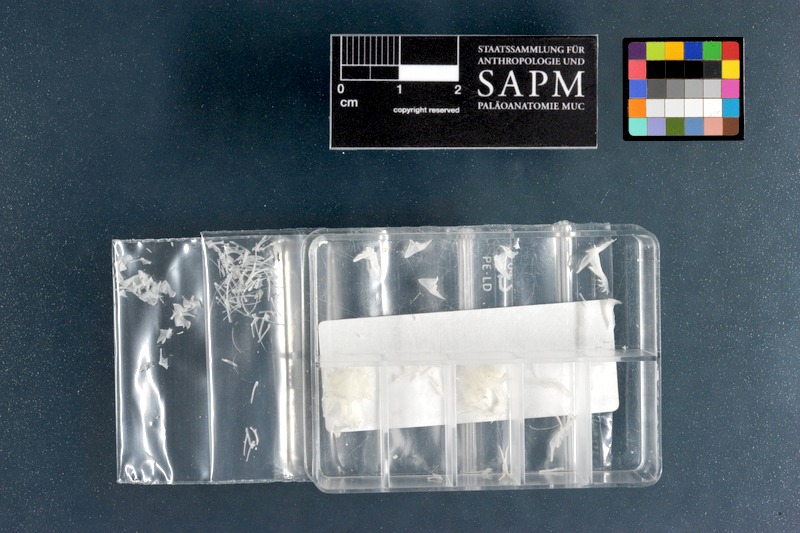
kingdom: Animalia
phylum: Chordata
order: Perciformes
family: Callionymidae
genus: Synchiropus
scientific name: Synchiropus picturatus
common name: Green spot mandarin
